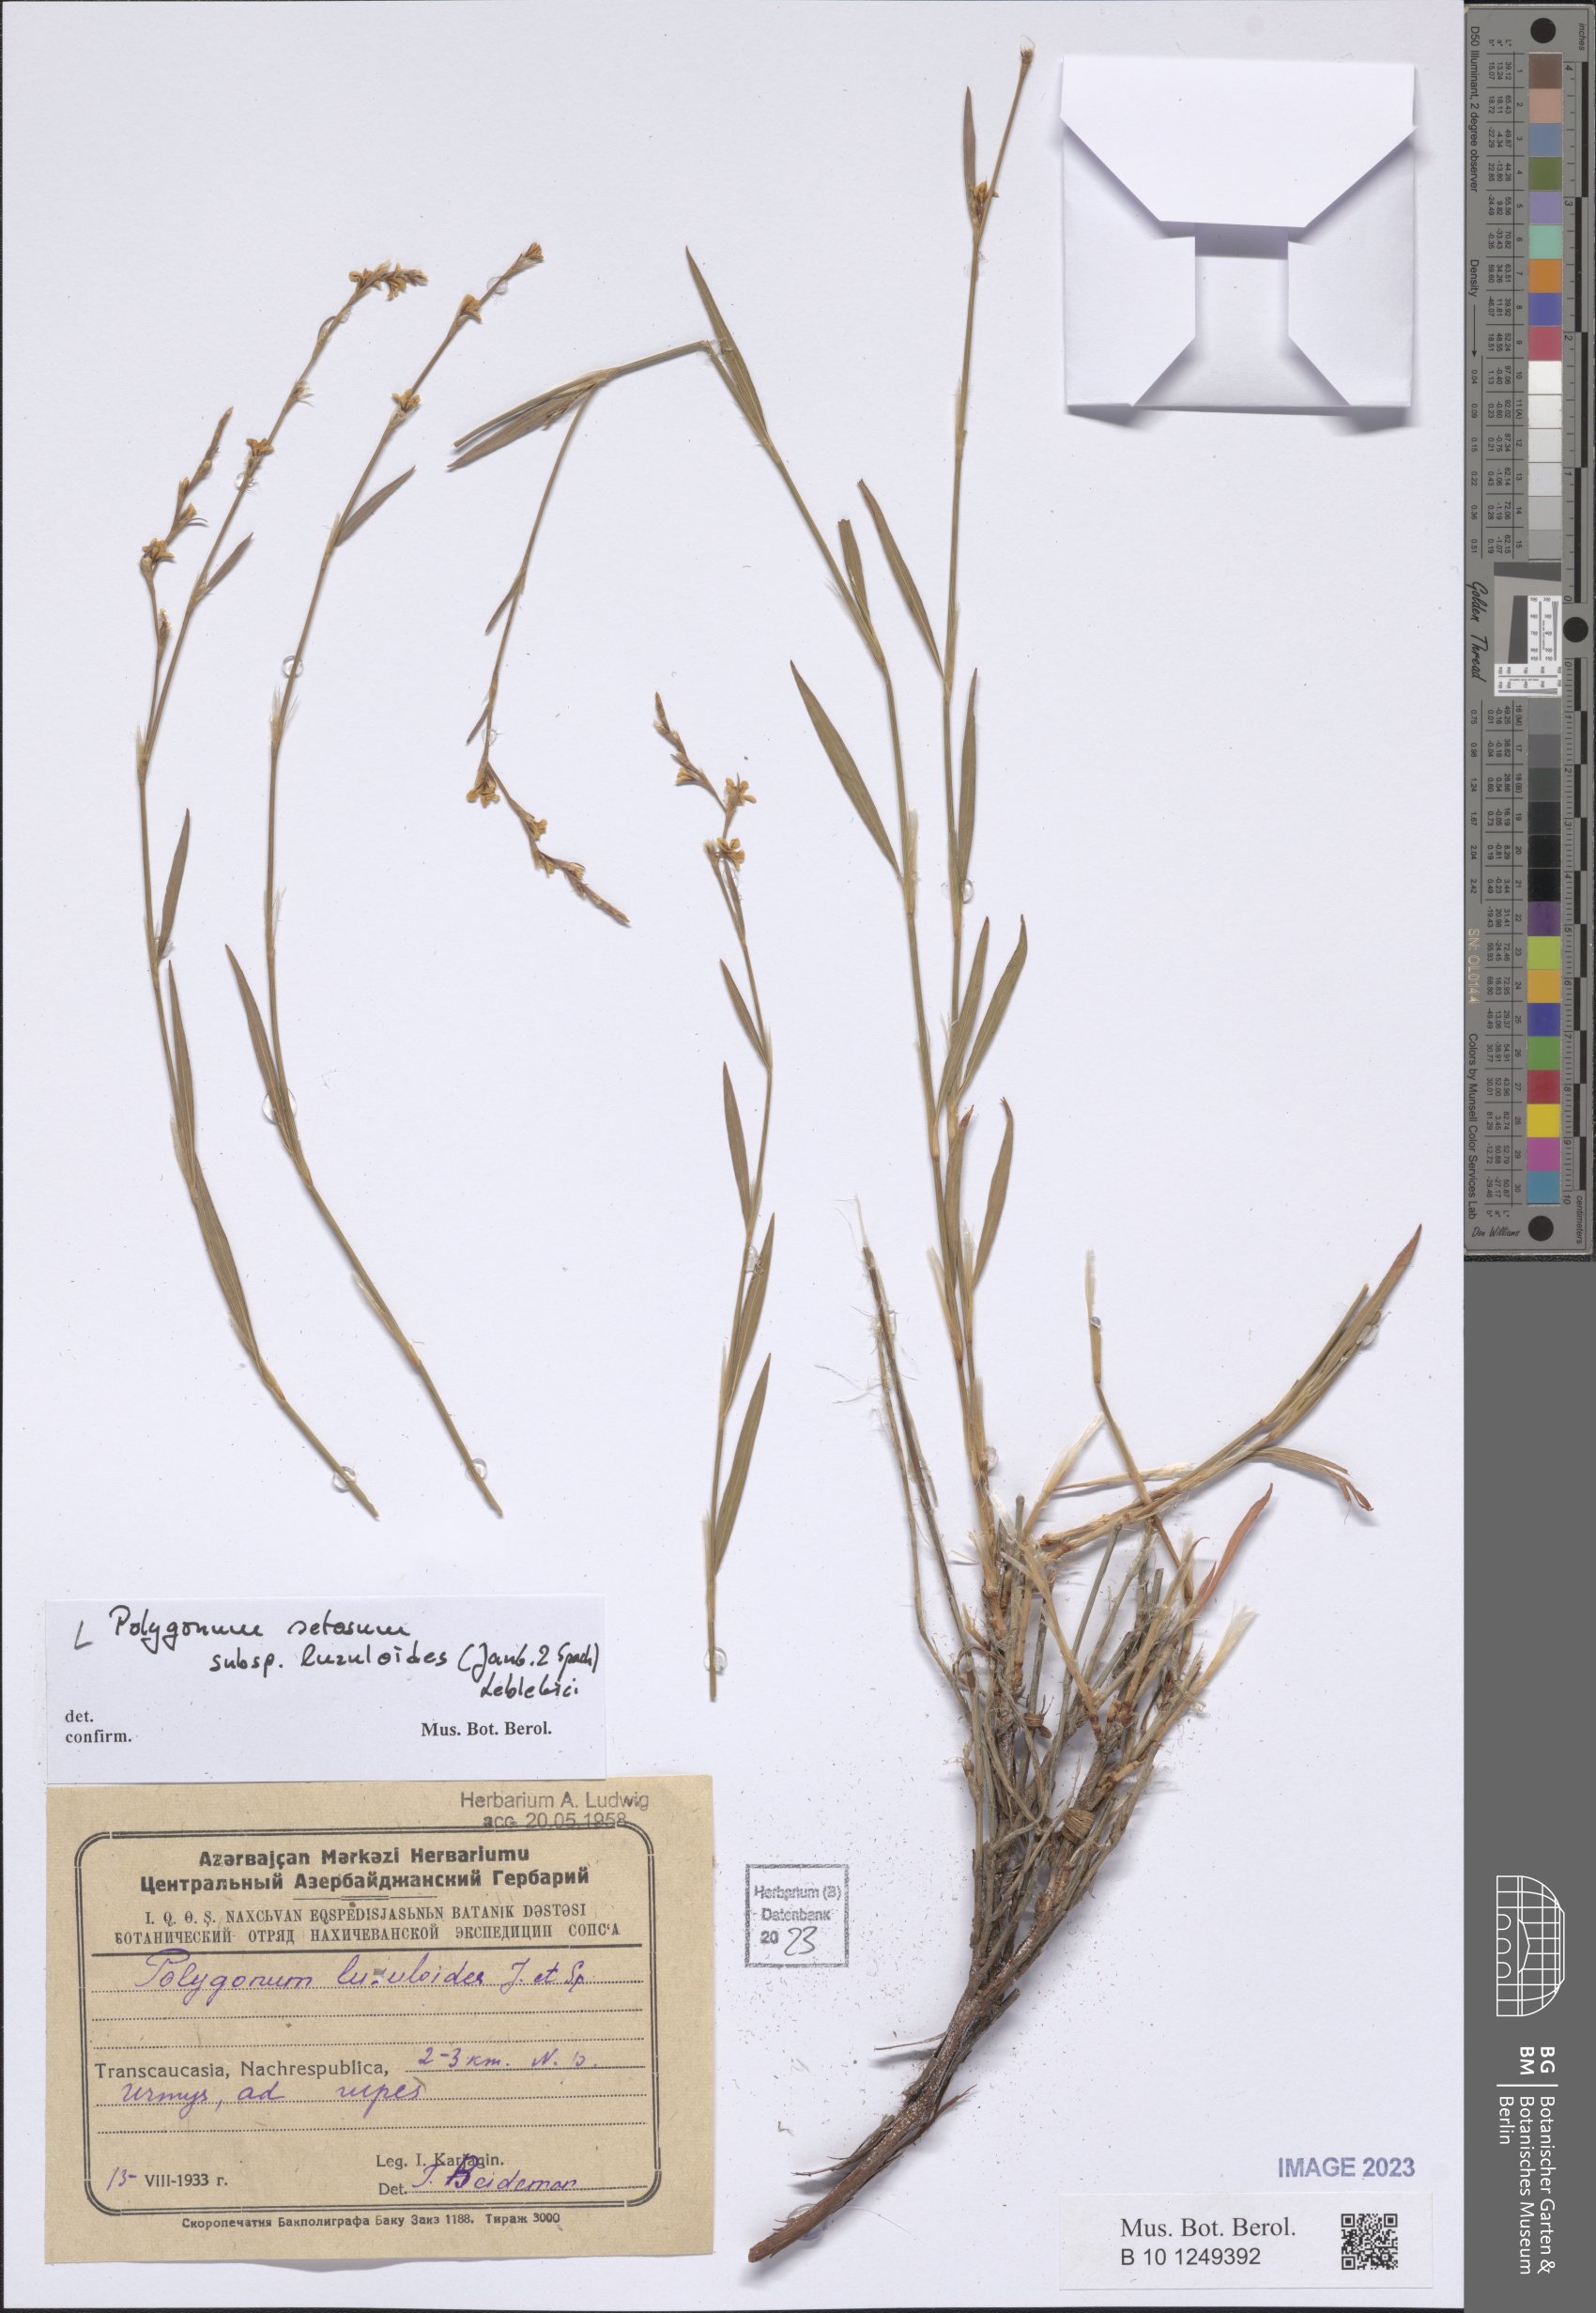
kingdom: Plantae
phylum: Tracheophyta
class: Magnoliopsida
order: Caryophyllales
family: Polygonaceae
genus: Polygonum
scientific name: Polygonum luzuloides
